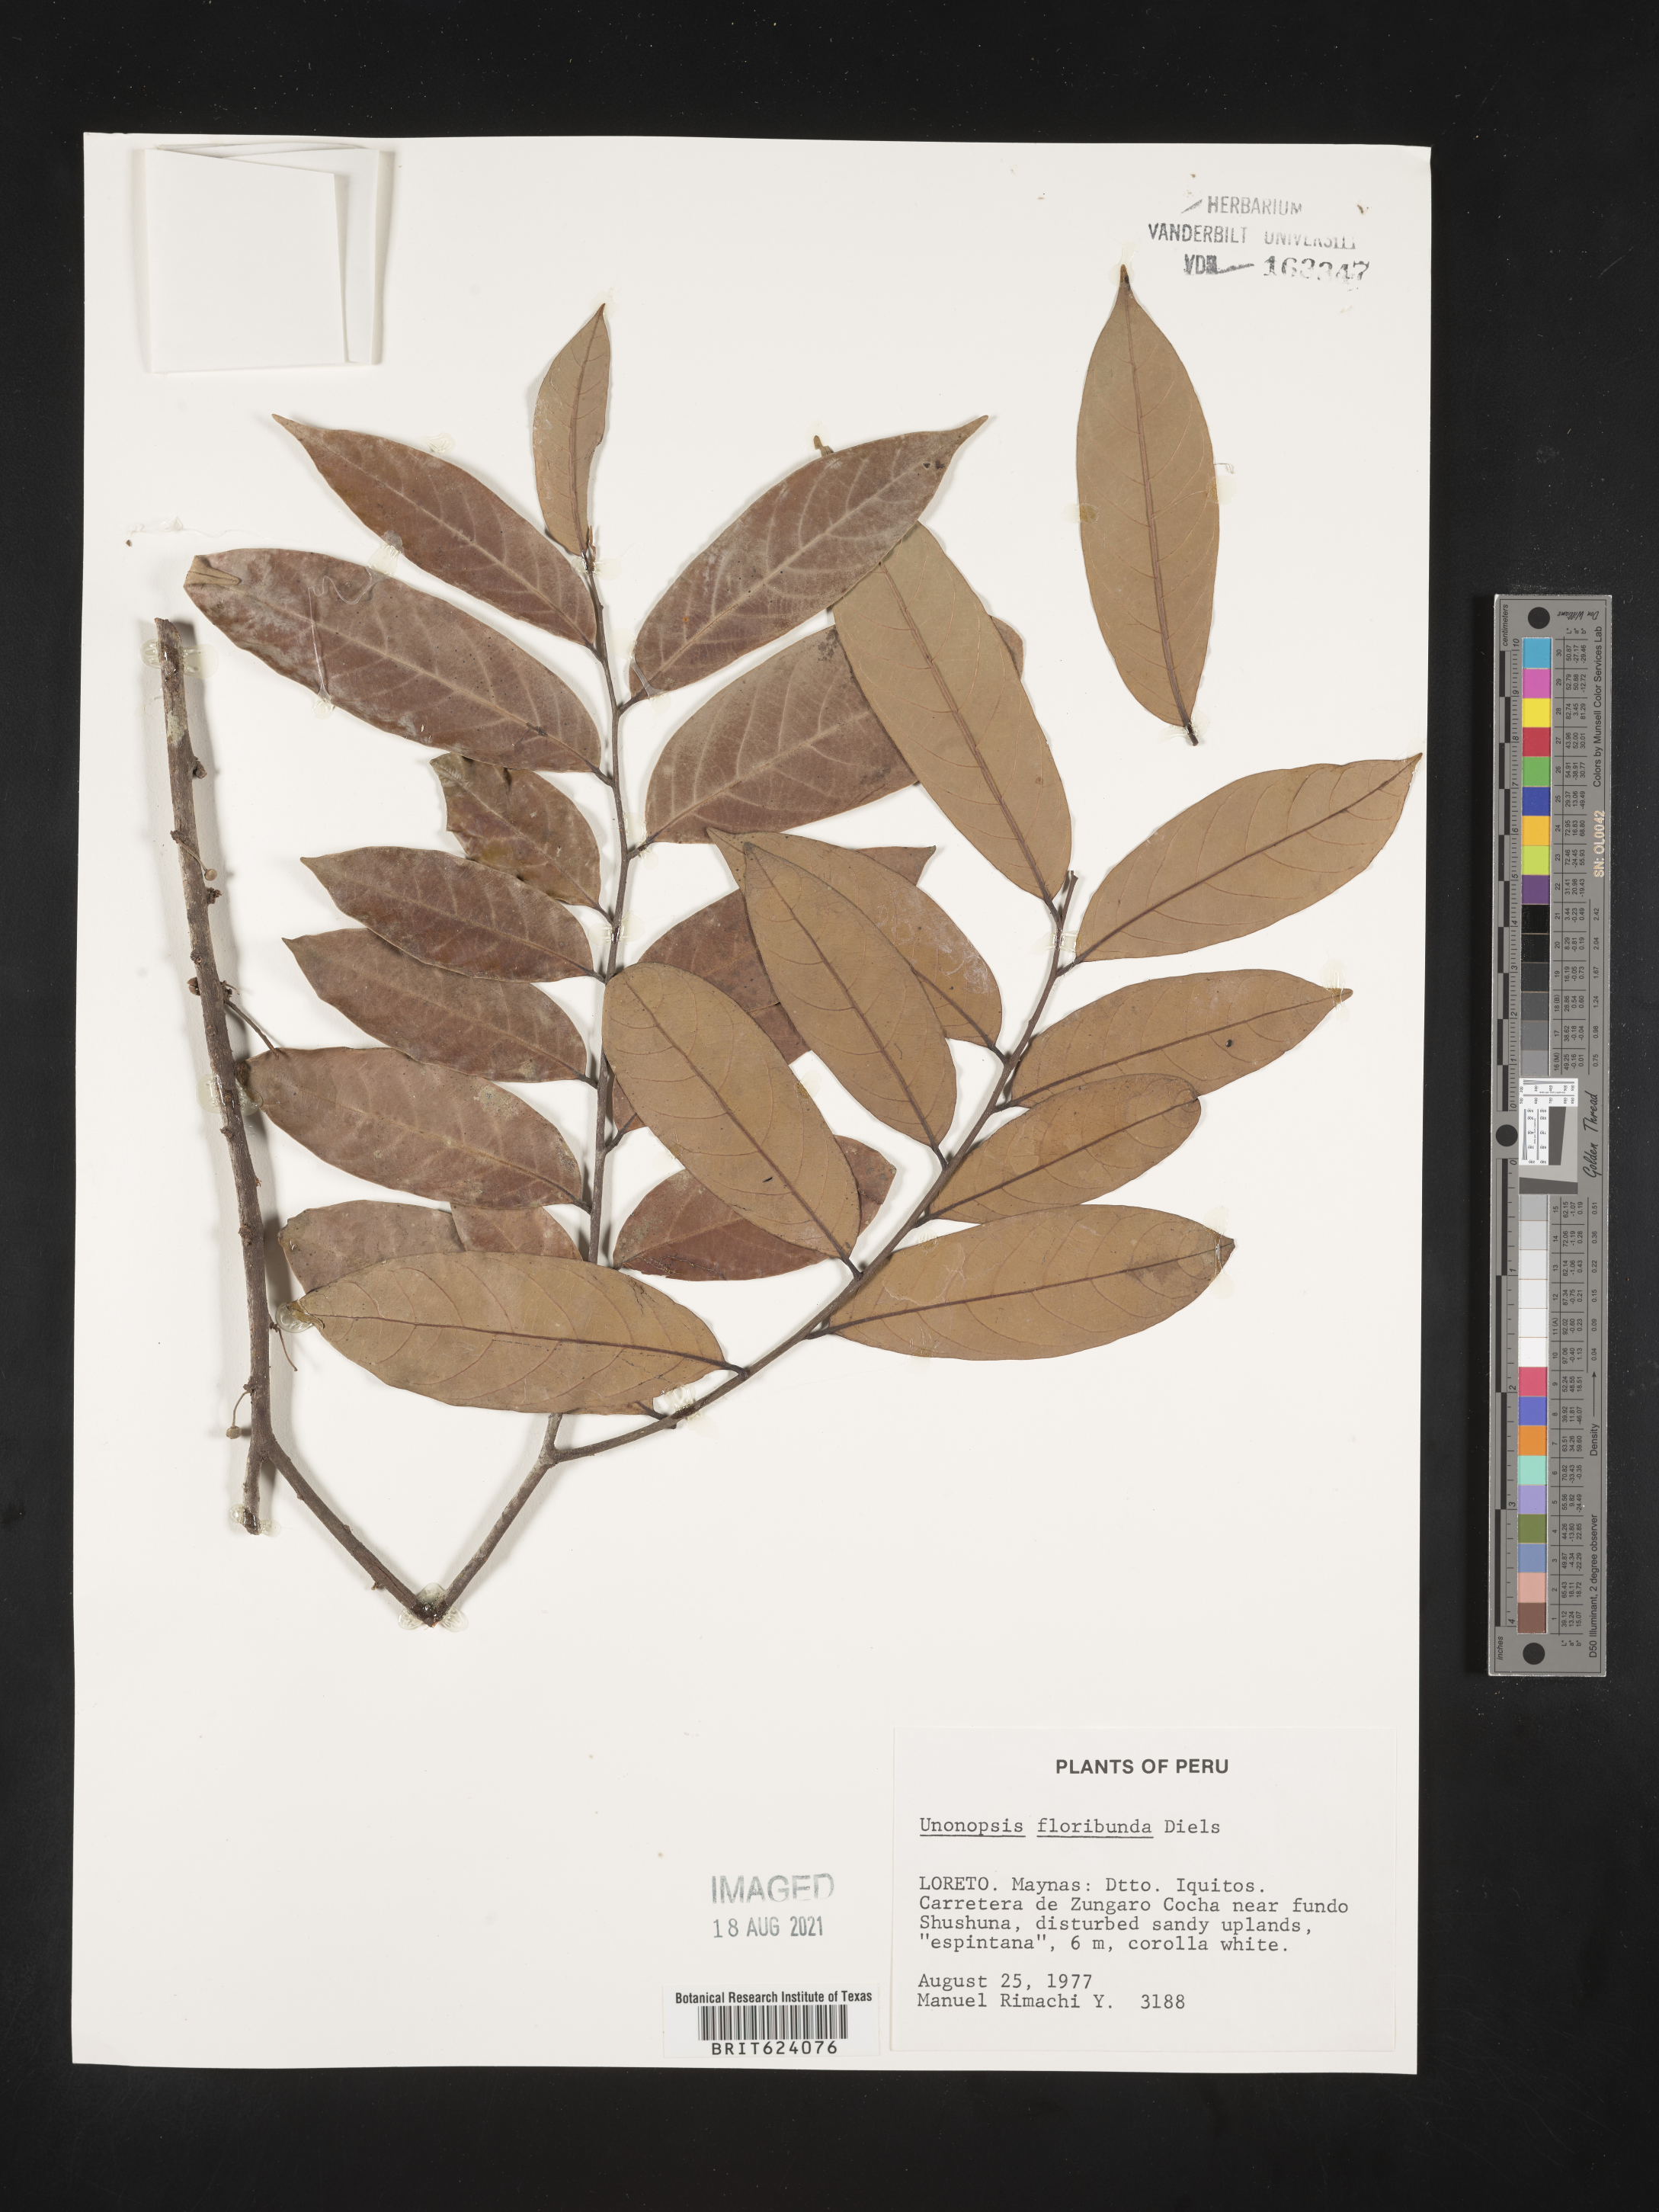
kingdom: Plantae
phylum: Tracheophyta
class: Magnoliopsida
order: Magnoliales
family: Annonaceae
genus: Unonopsis
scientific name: Unonopsis floribunda
